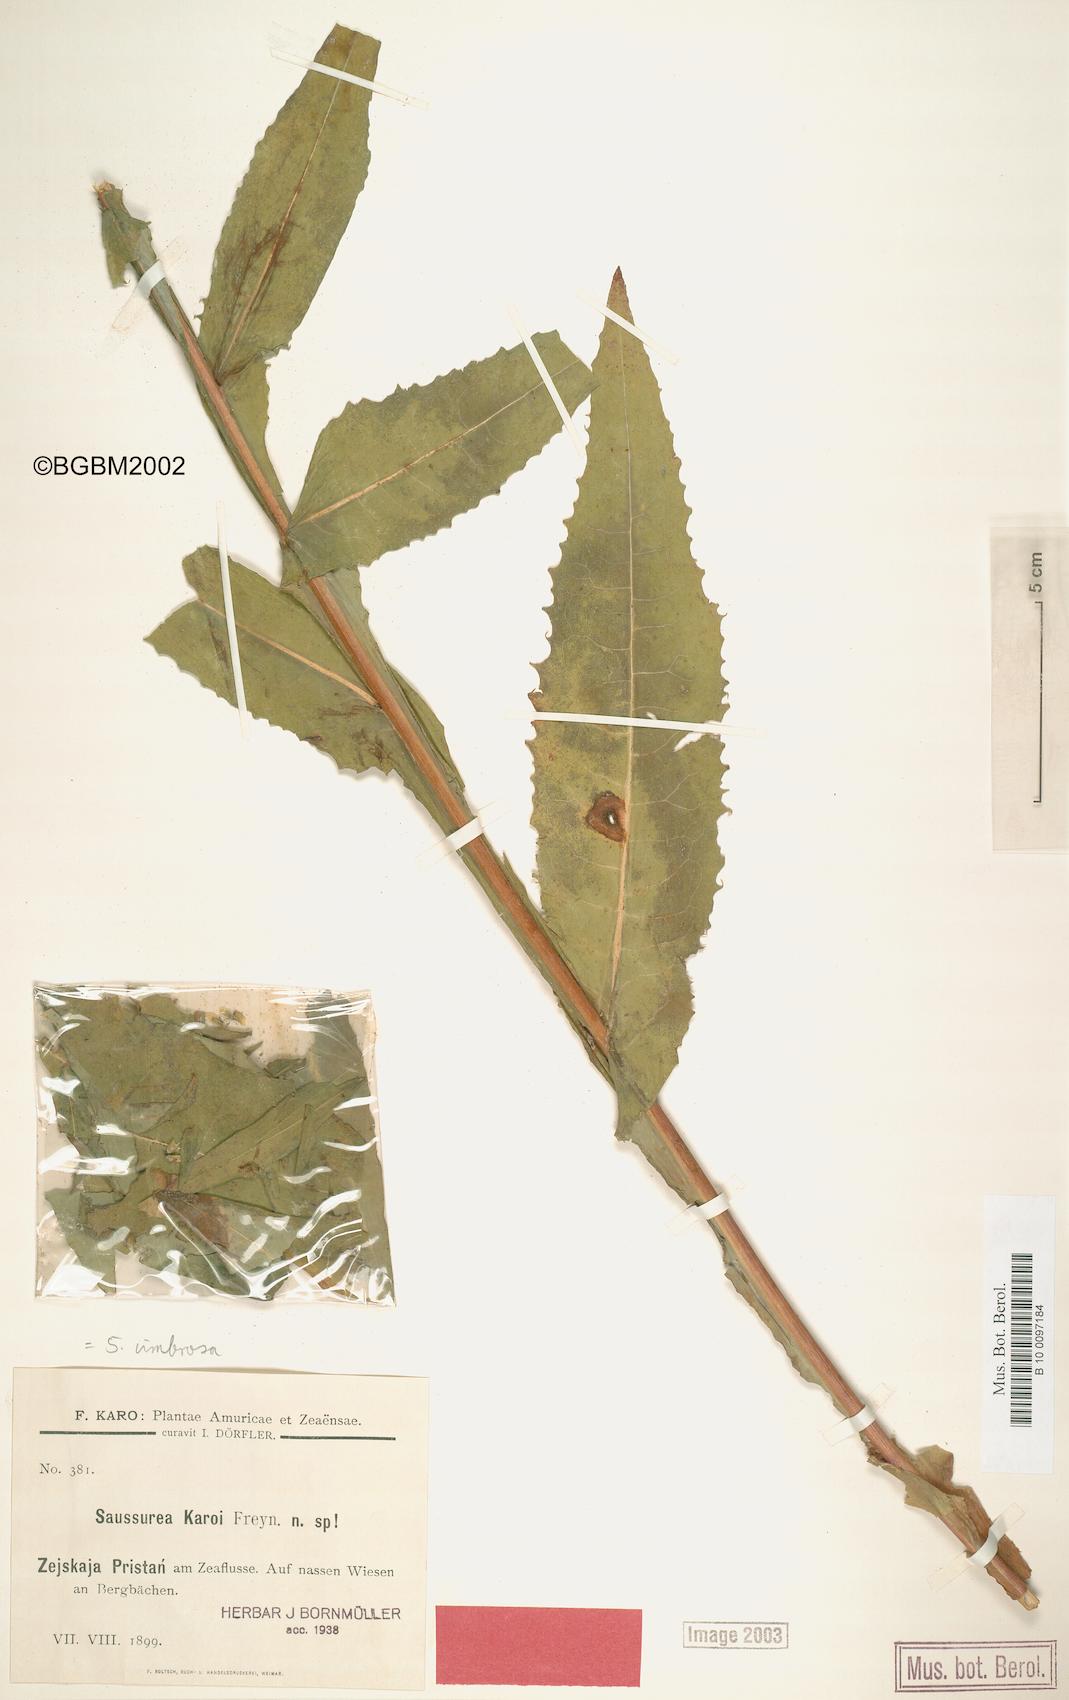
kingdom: Plantae
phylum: Tracheophyta
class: Magnoliopsida
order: Asterales
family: Asteraceae
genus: Saussurea
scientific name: Saussurea umbrosa
